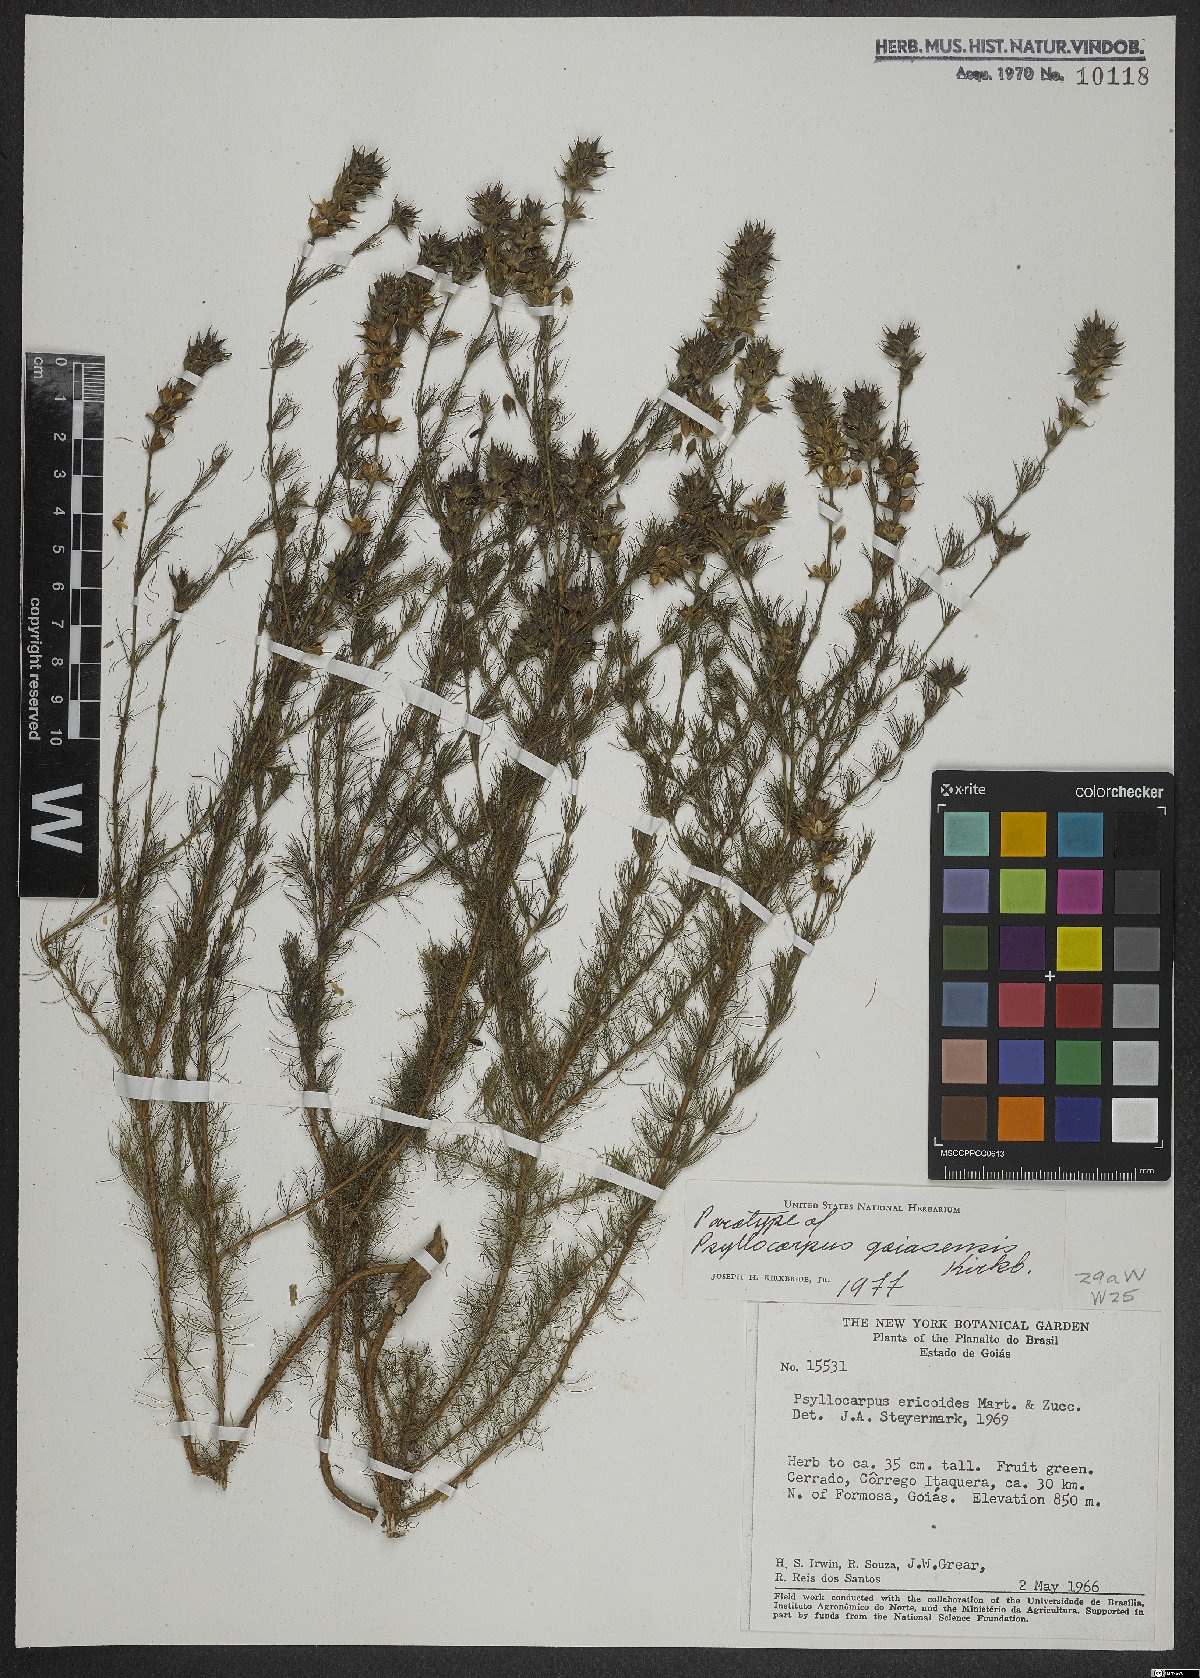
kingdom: Plantae
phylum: Tracheophyta
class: Magnoliopsida
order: Gentianales
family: Rubiaceae
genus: Psyllocarpus
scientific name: Psyllocarpus goiasensis
